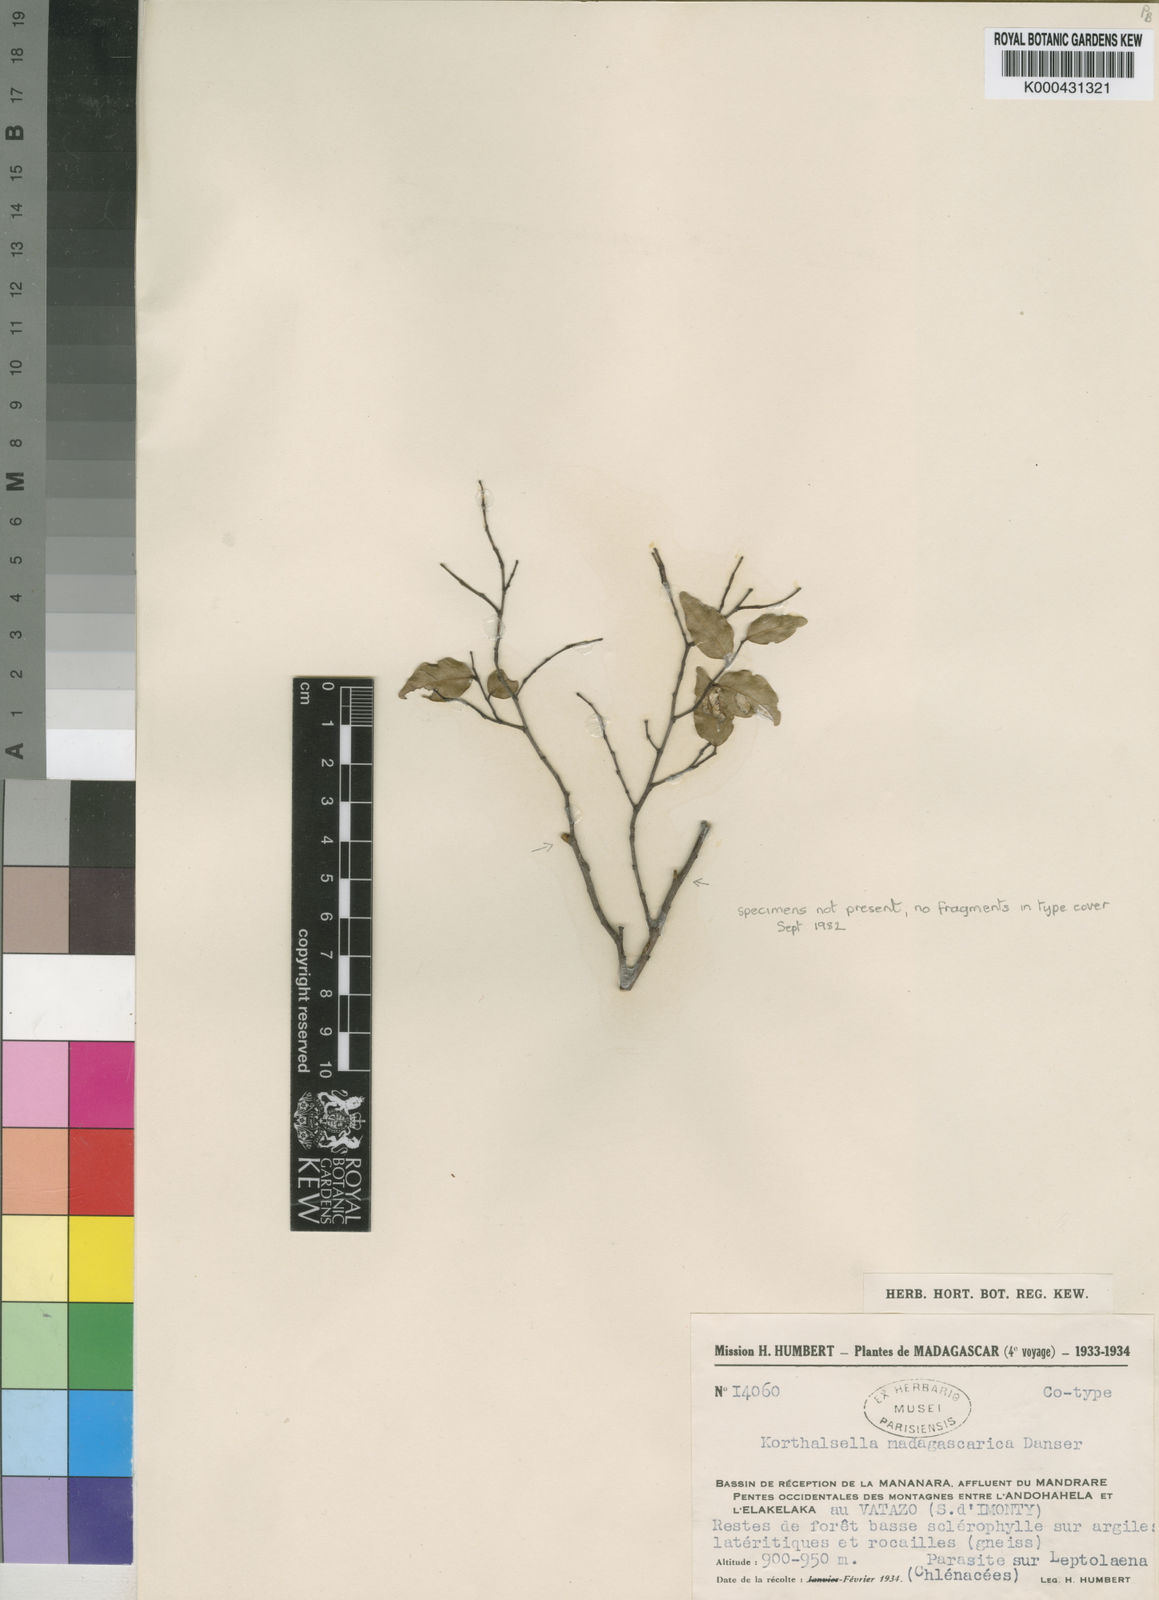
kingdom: Plantae
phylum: Tracheophyta
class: Magnoliopsida
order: Santalales
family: Viscaceae
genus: Korthalsella
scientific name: Korthalsella madagascarica
